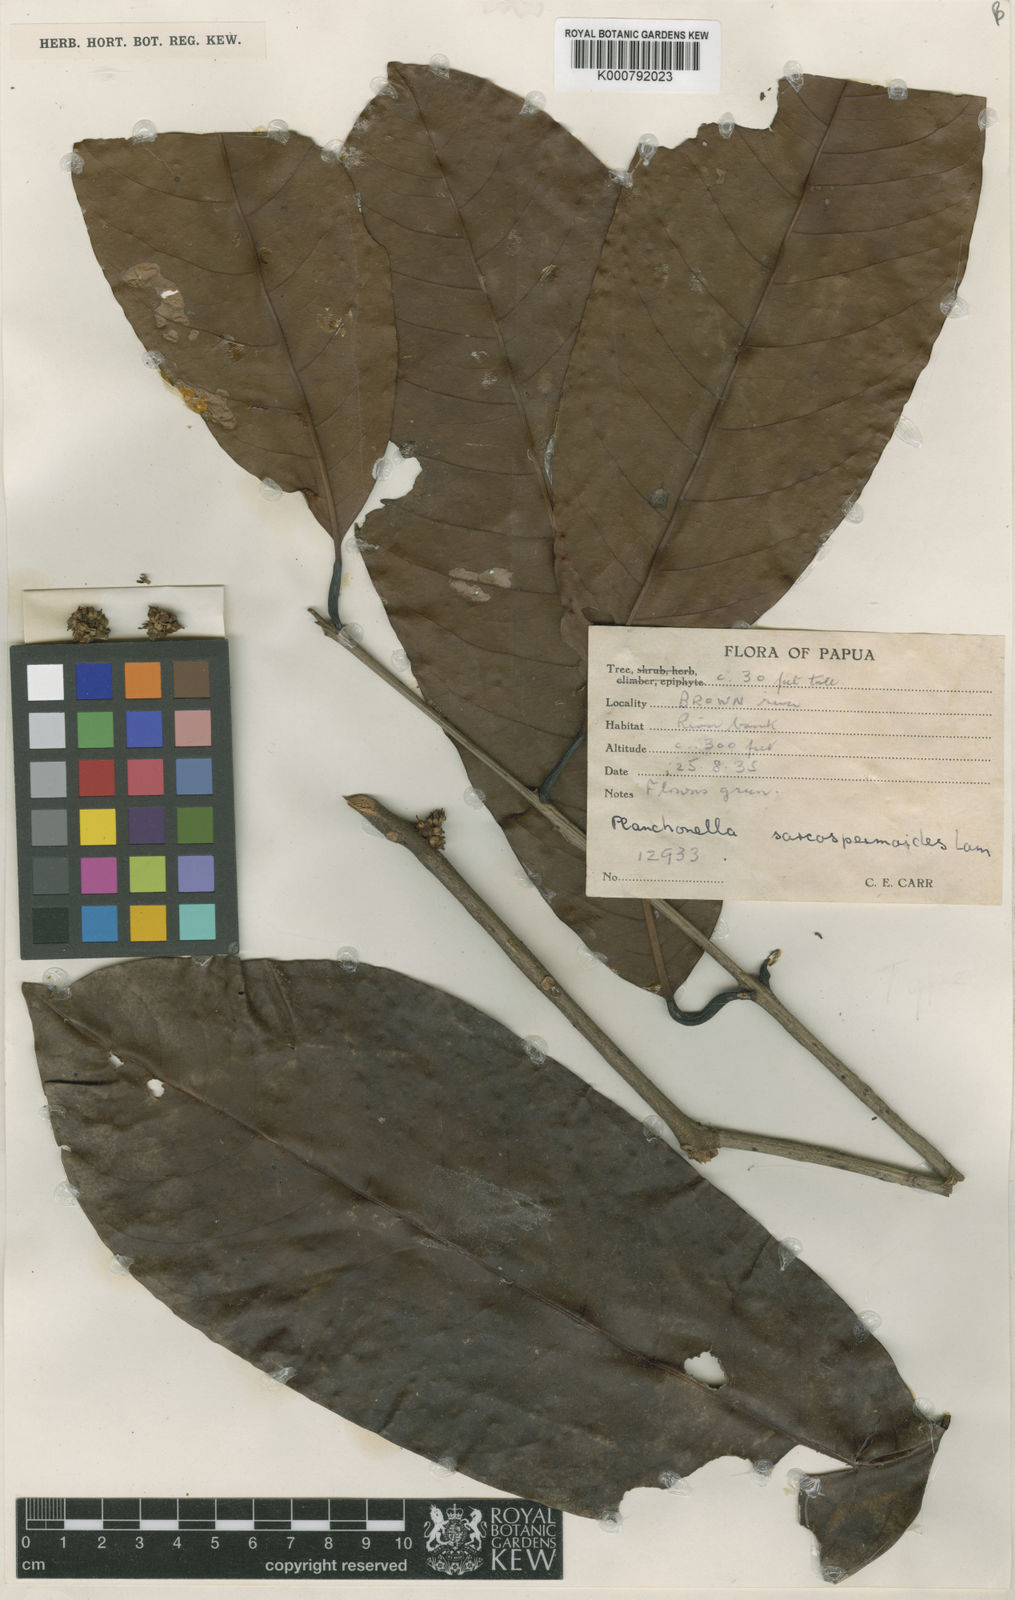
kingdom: Plantae
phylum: Tracheophyta
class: Magnoliopsida
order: Ericales
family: Sapotaceae
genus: Pichonia
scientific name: Pichonia lauterbachiana
